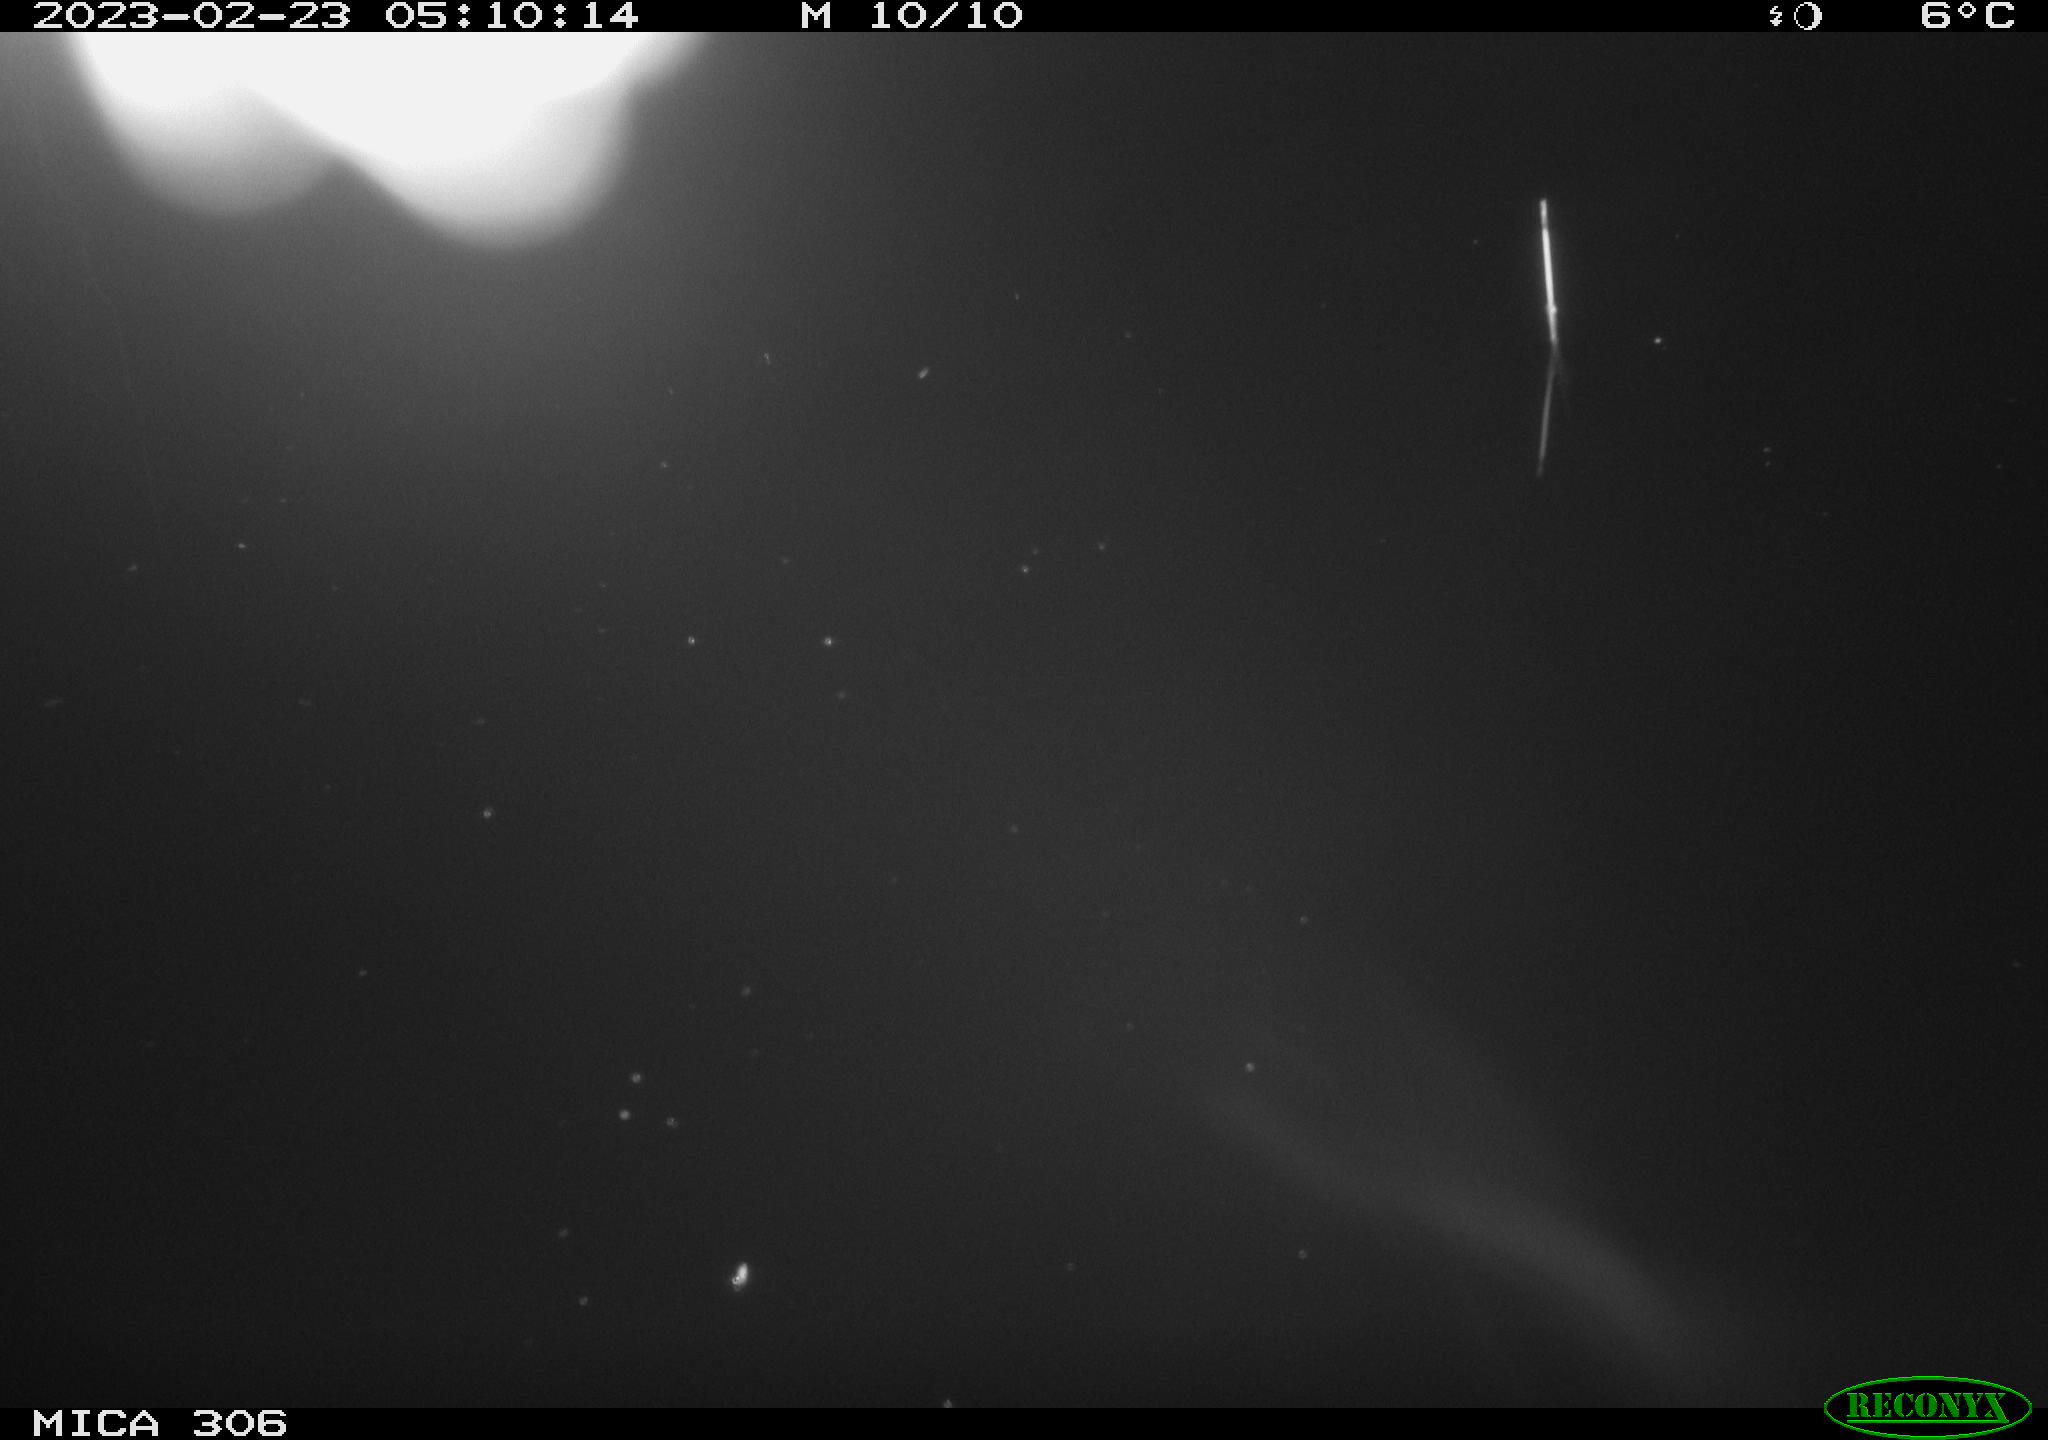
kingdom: Animalia
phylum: Chordata
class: Mammalia
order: Rodentia
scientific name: Rodentia
